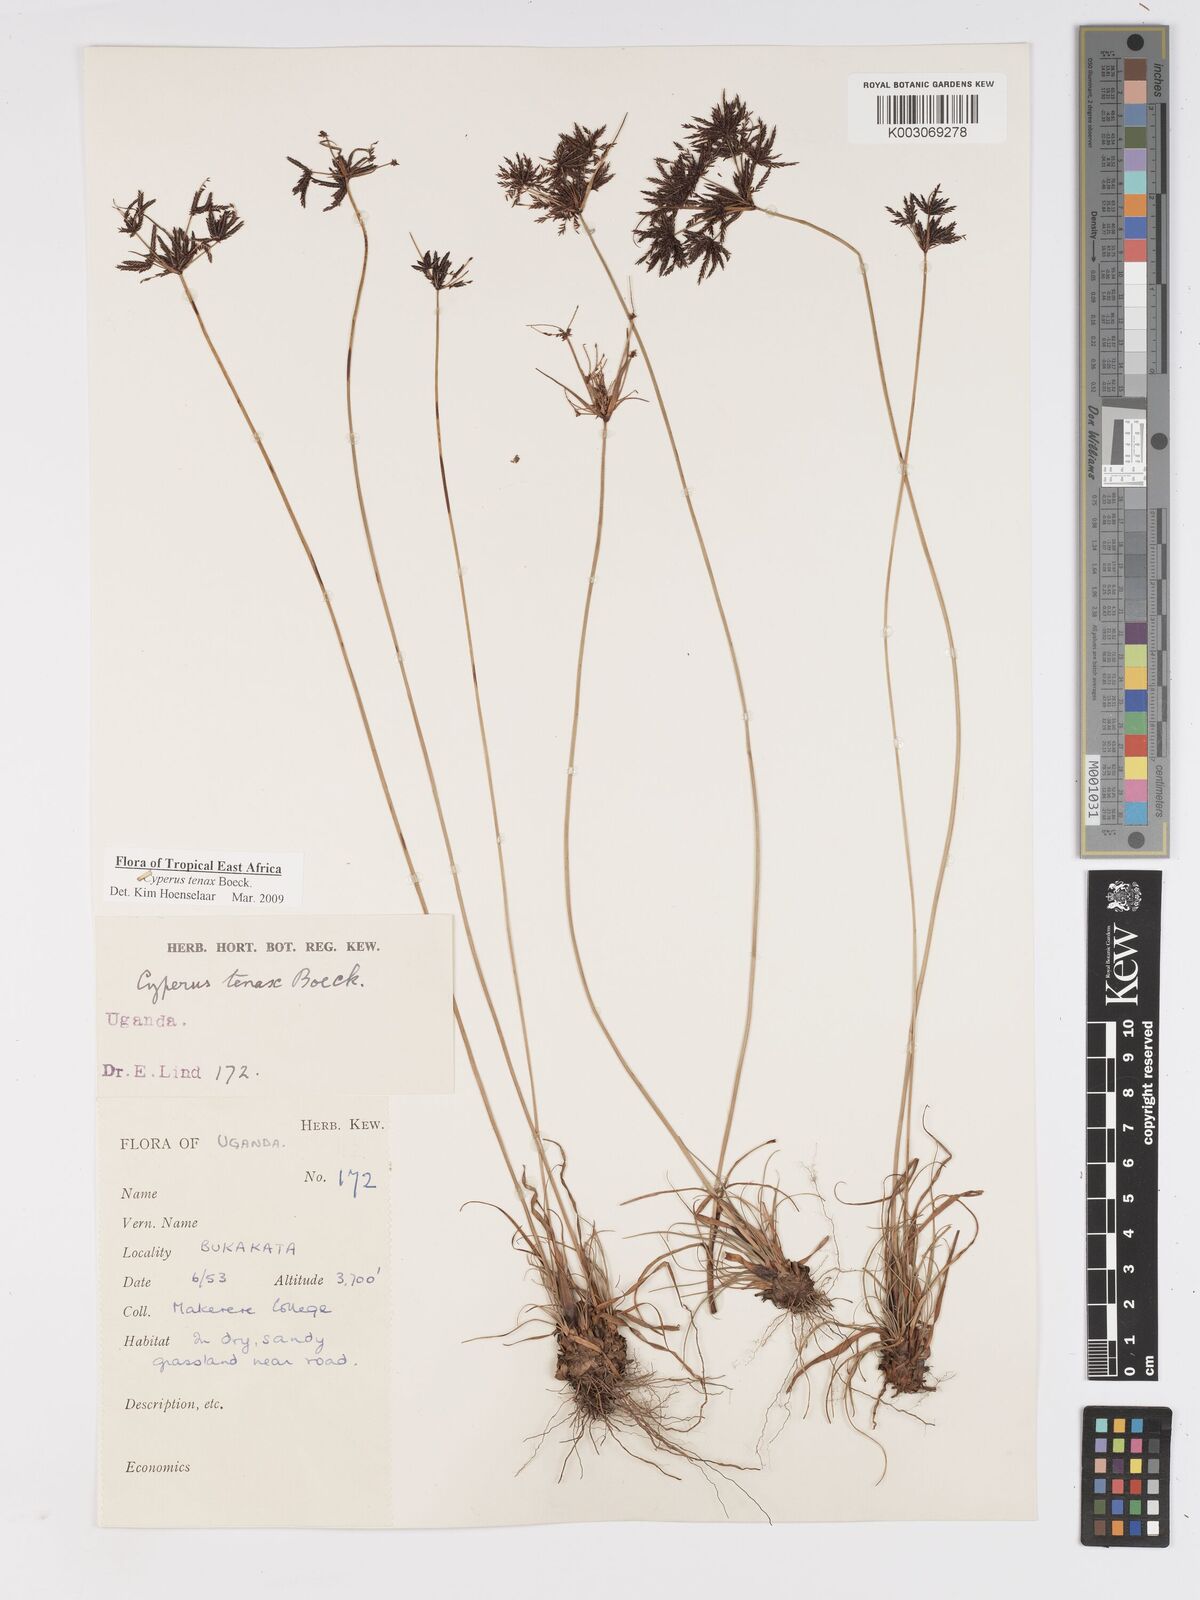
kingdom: Plantae
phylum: Tracheophyta
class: Liliopsida
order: Poales
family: Cyperaceae
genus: Cyperus
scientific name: Cyperus tenax
